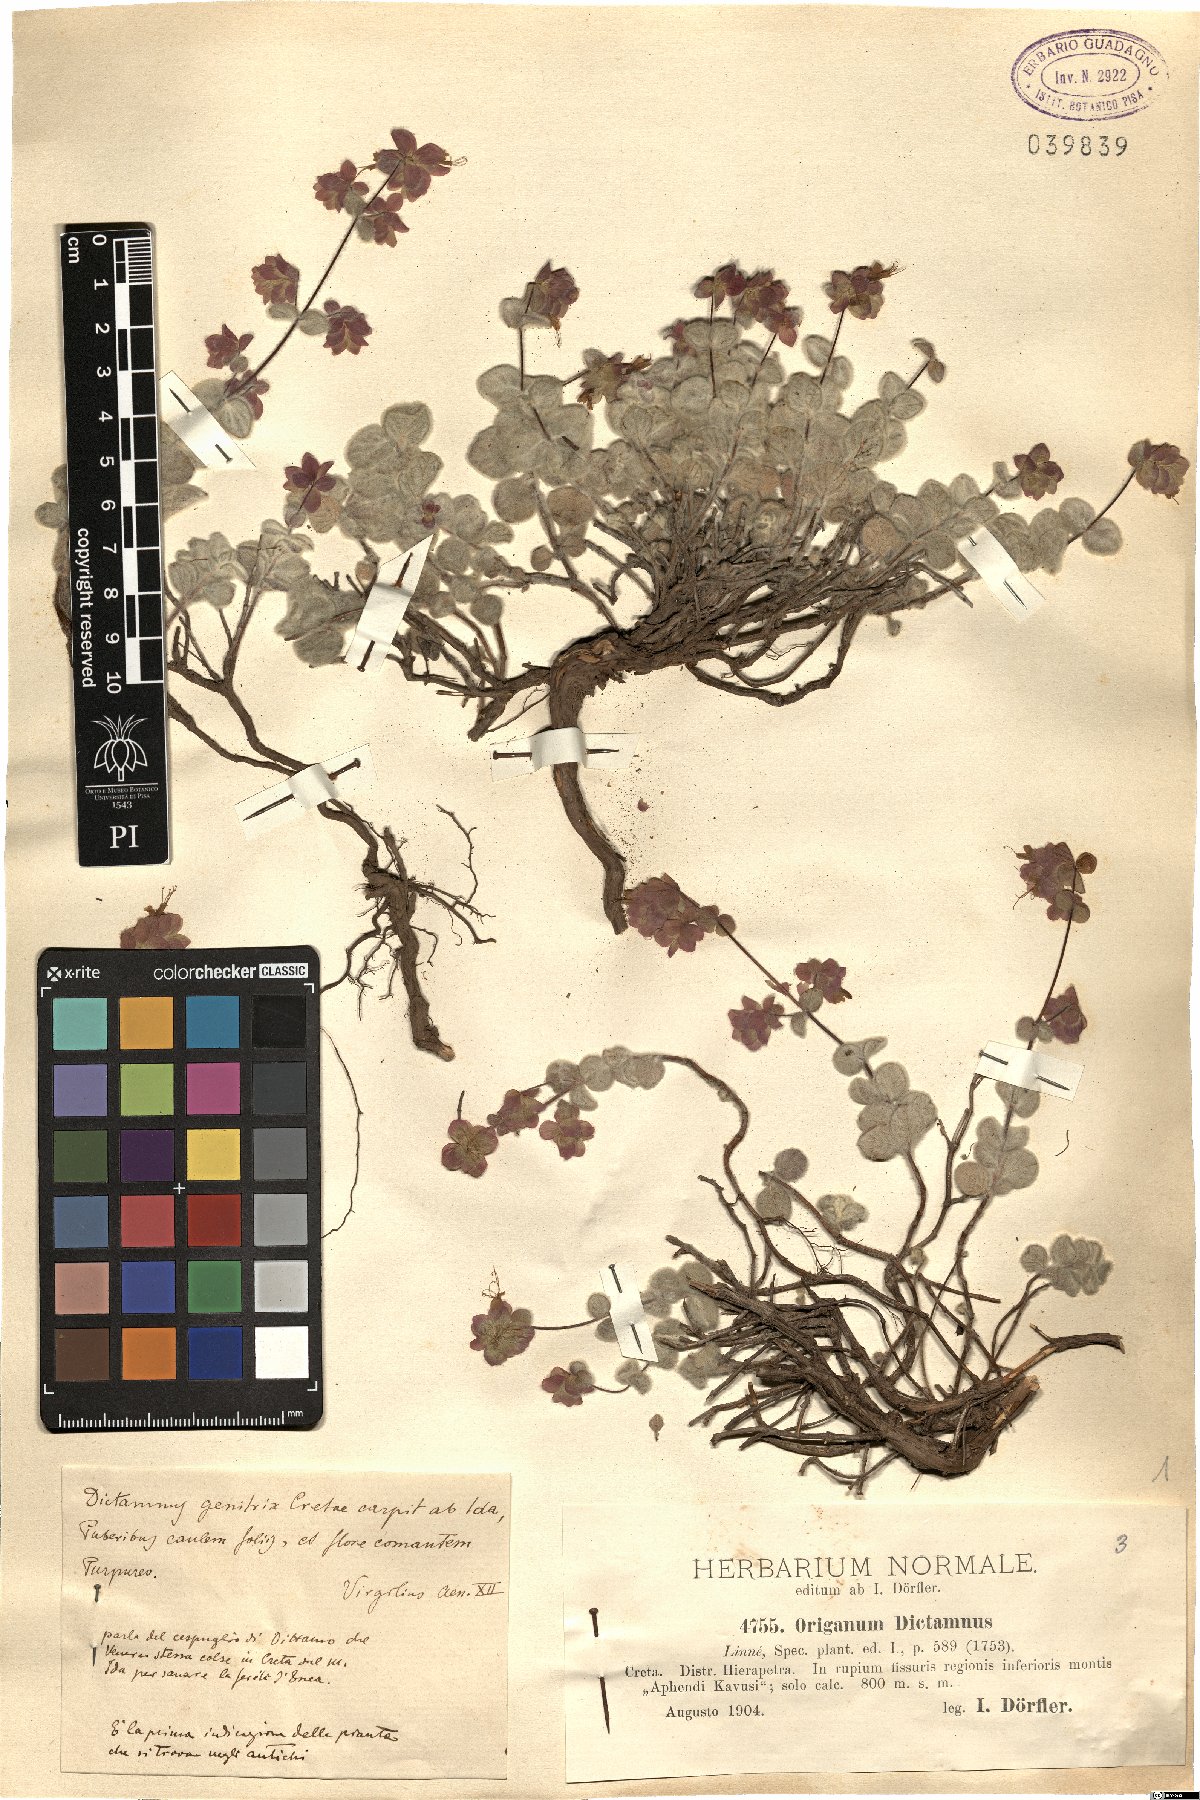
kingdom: Plantae
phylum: Tracheophyta
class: Magnoliopsida
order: Lamiales
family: Lamiaceae
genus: Origanum
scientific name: Origanum dictamnus
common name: Cretan dittany
